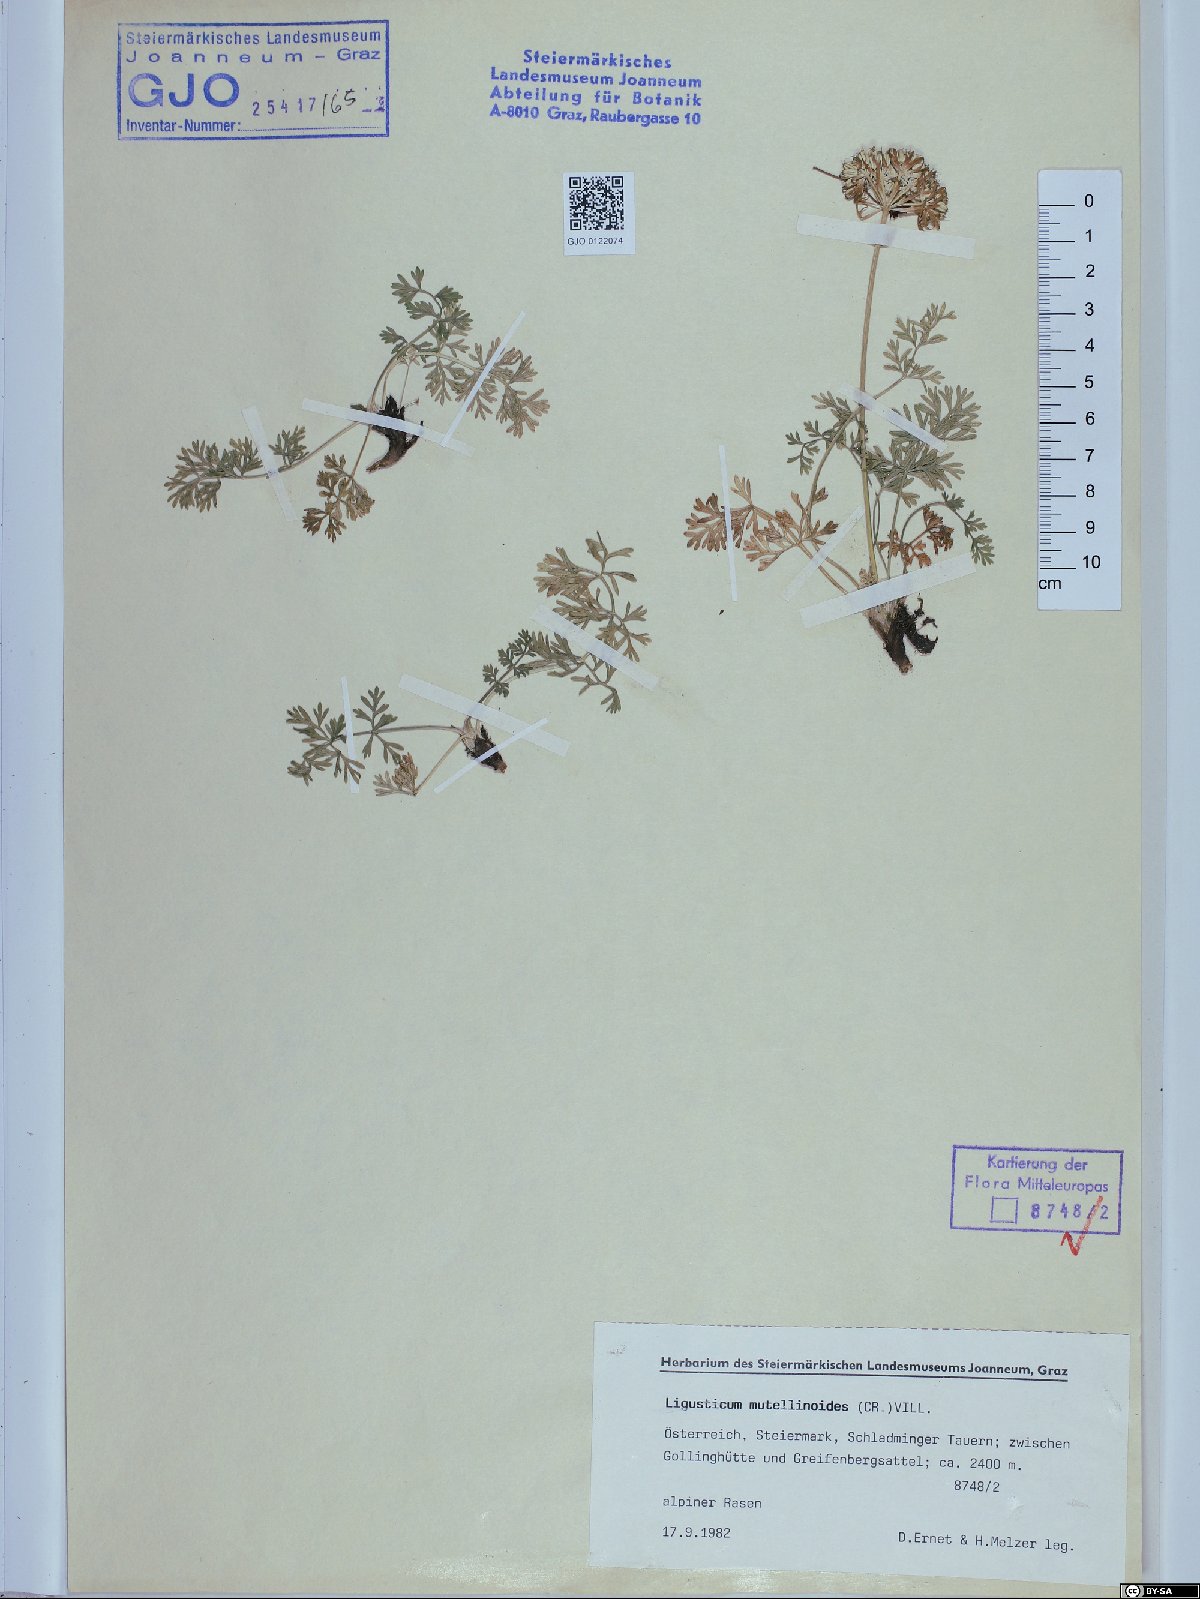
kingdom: Plantae
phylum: Tracheophyta
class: Magnoliopsida
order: Apiales
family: Apiaceae
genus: Pachypleurum
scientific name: Pachypleurum mutellinoides
